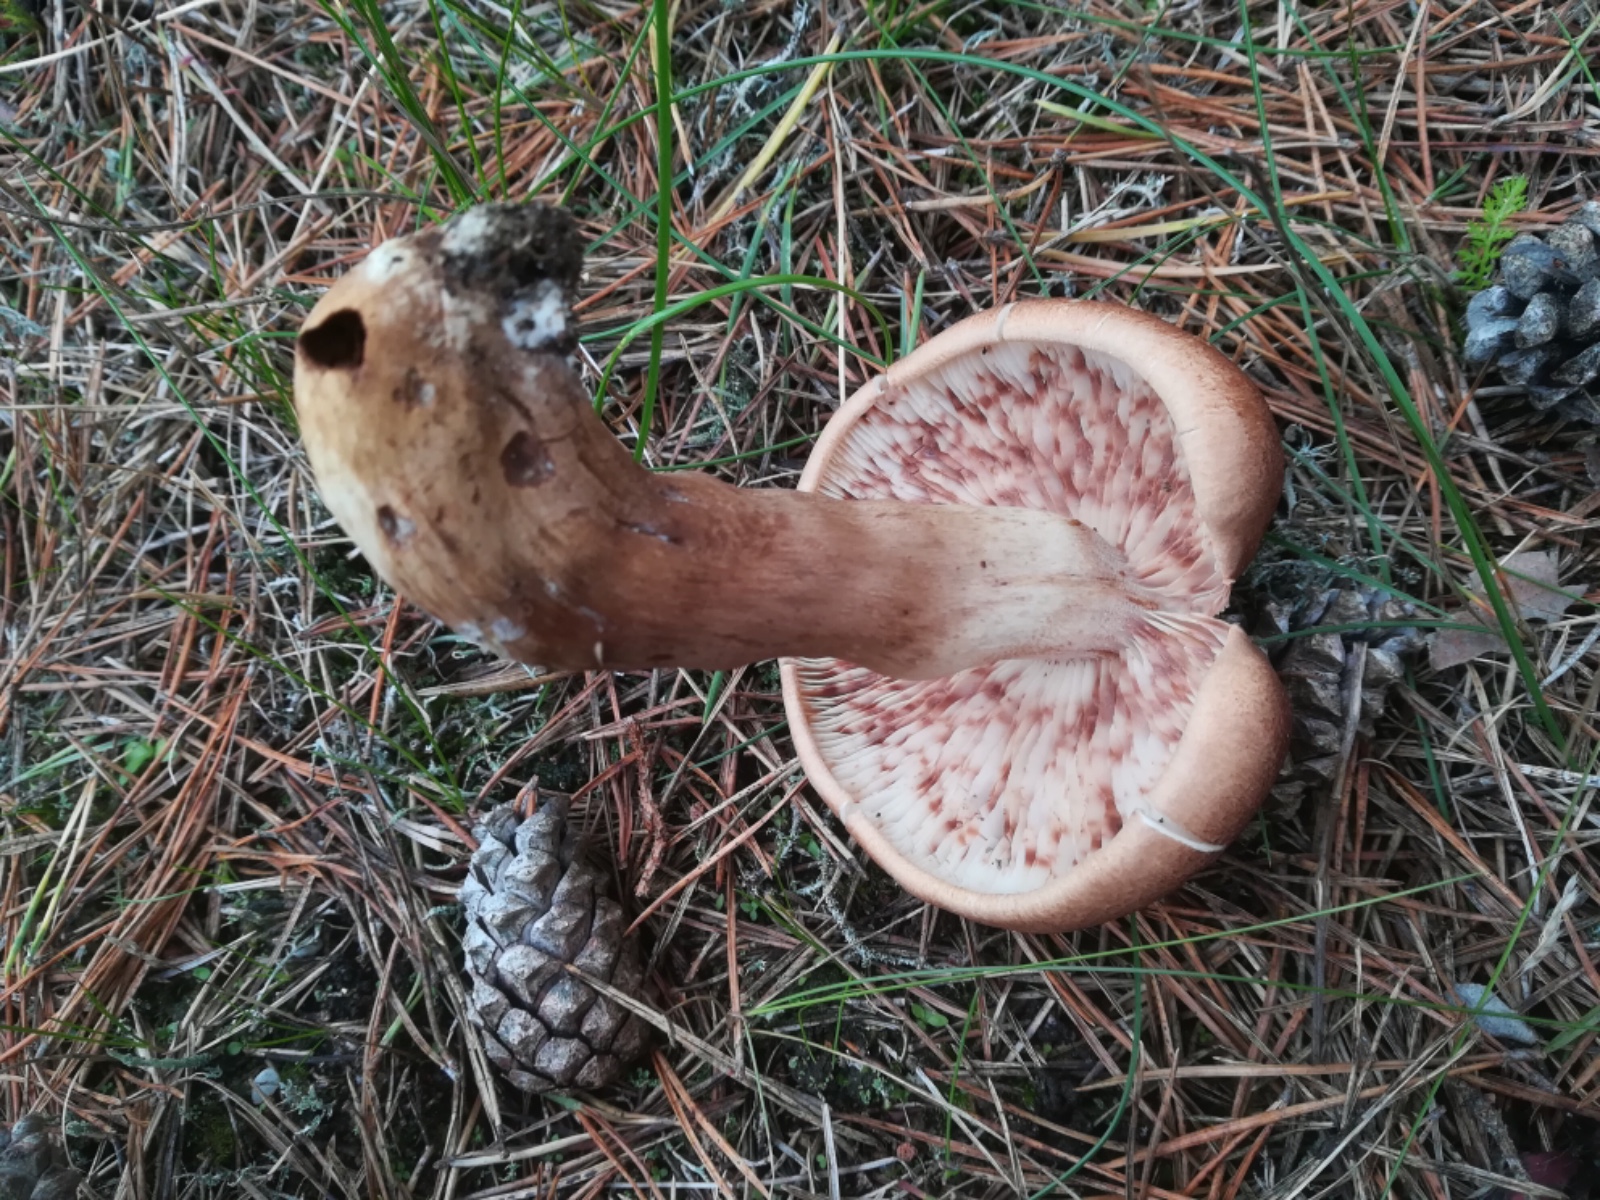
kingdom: Fungi
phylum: Basidiomycota
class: Agaricomycetes
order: Agaricales
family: Tricholomataceae
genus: Tricholoma
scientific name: Tricholoma imbricatum
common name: skællet ridderhat
